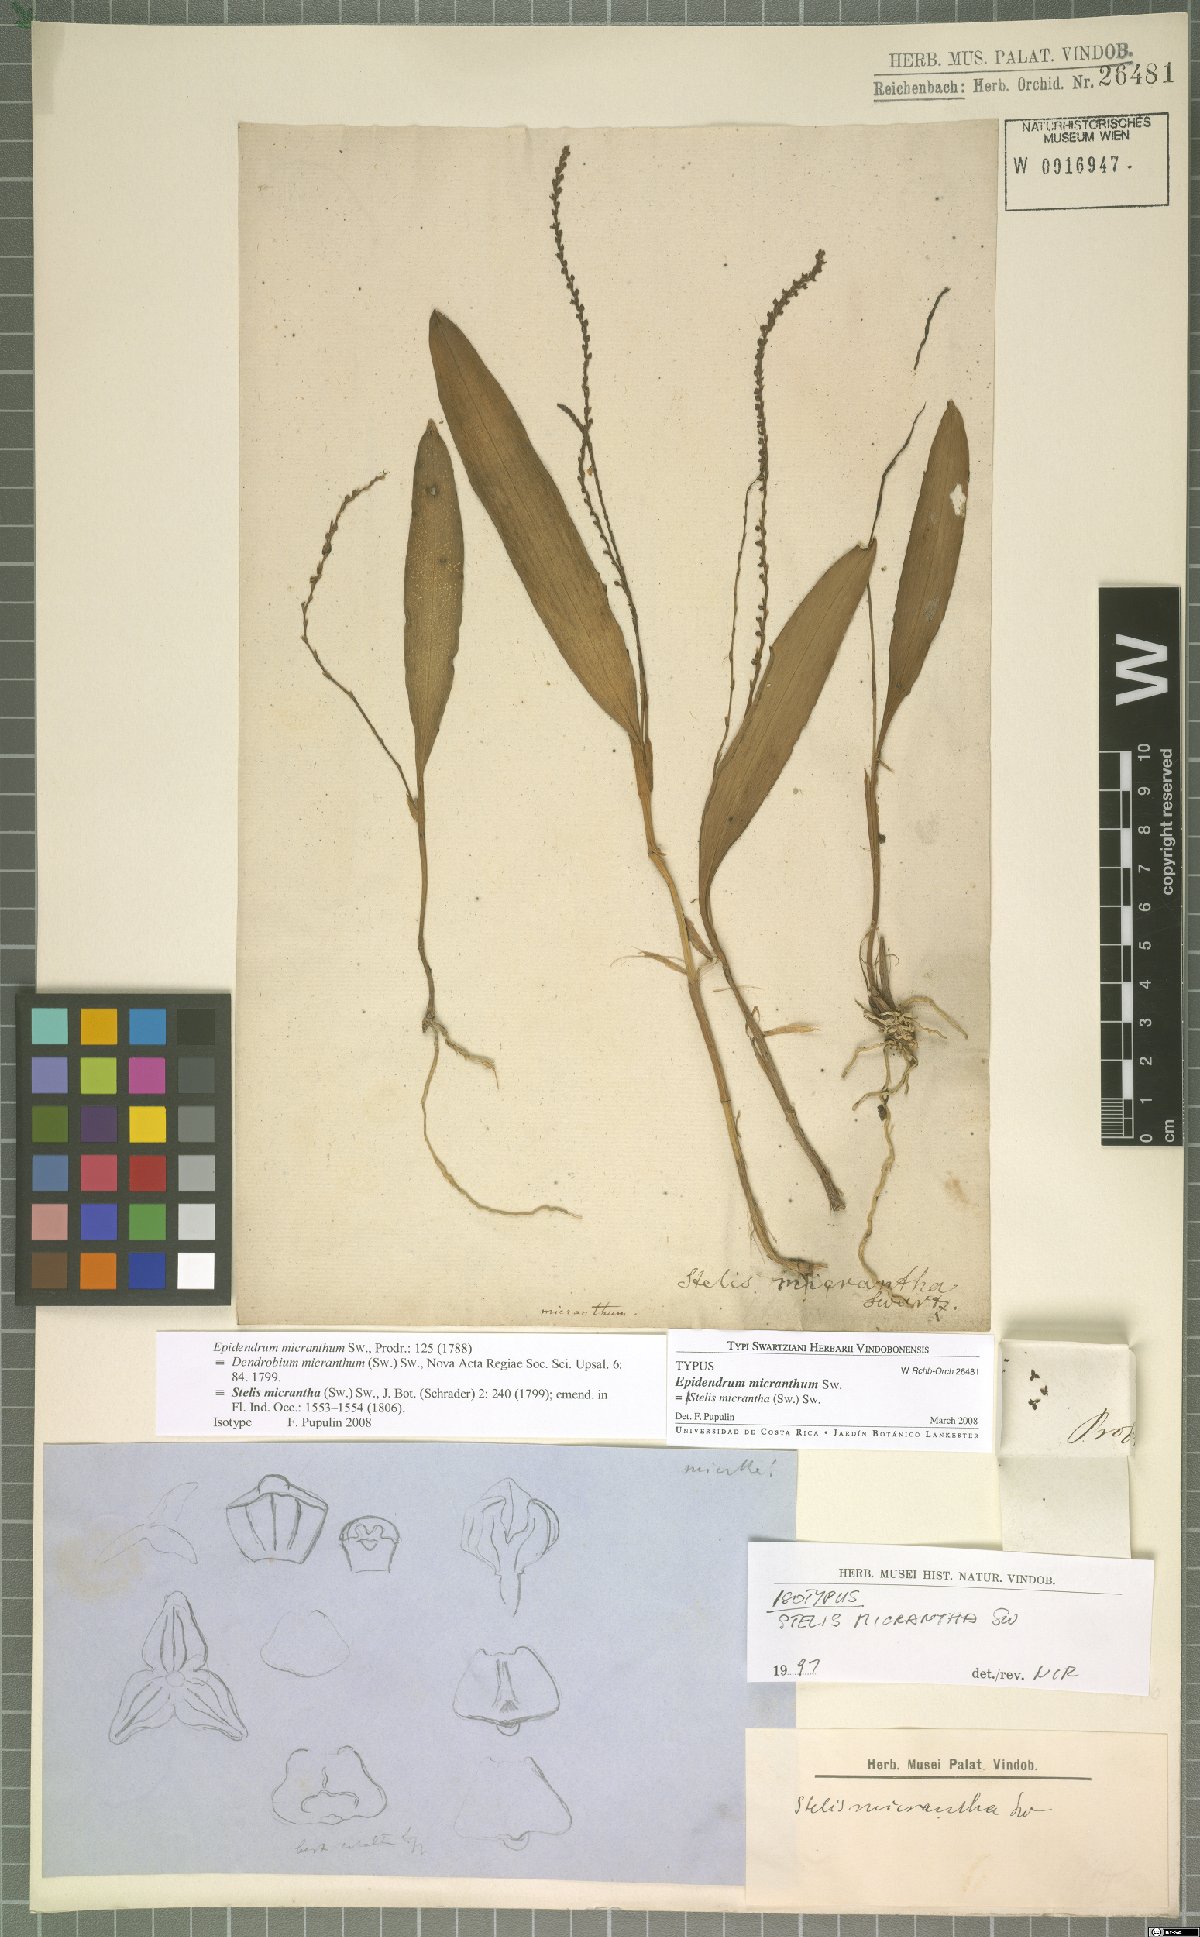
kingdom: Plantae
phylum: Tracheophyta
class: Liliopsida
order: Asparagales
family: Orchidaceae
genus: Stelis
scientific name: Stelis micrantha
